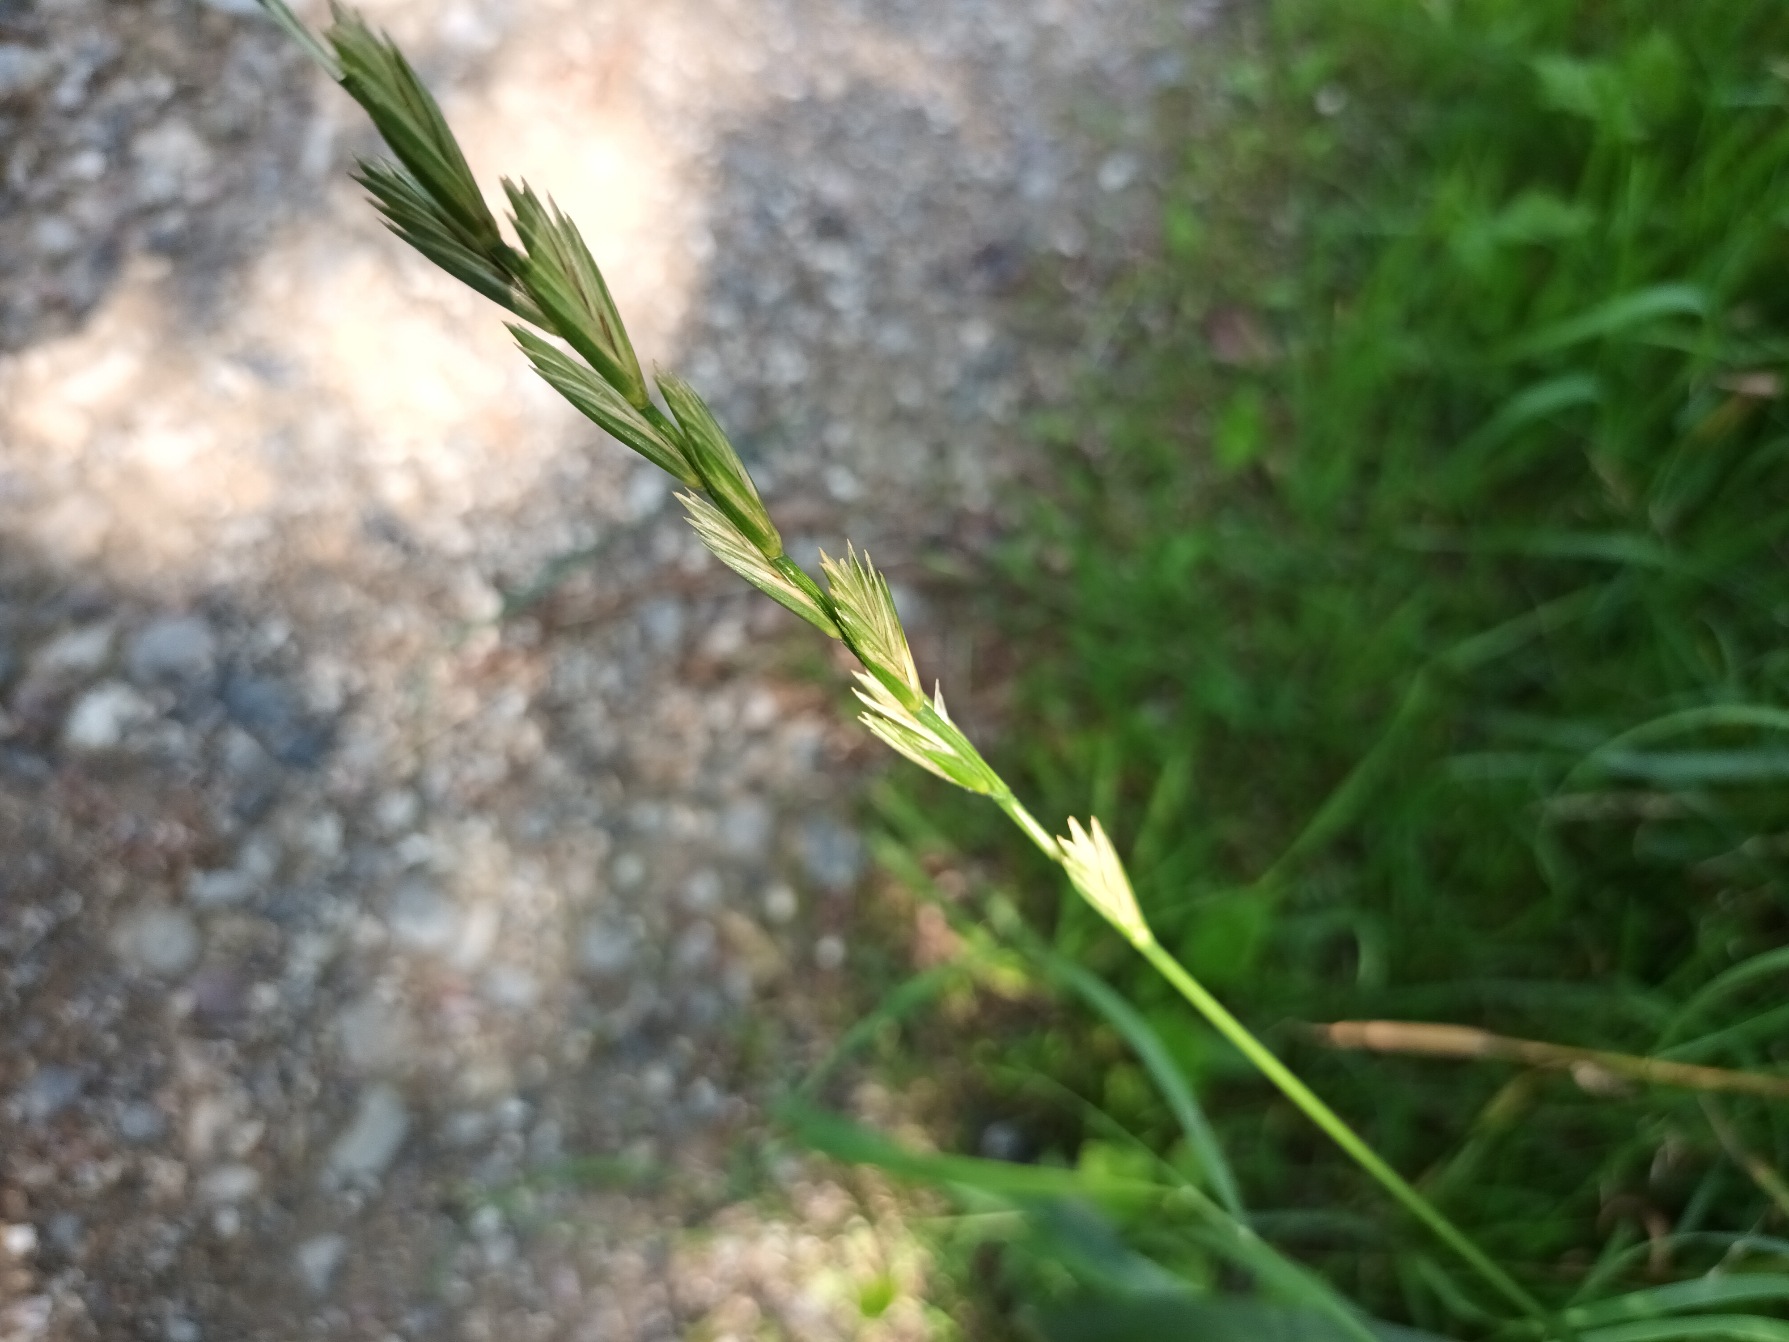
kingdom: Plantae
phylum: Tracheophyta
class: Liliopsida
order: Poales
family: Poaceae
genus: Elymus
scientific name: Elymus repens
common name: Almindelig kvik
